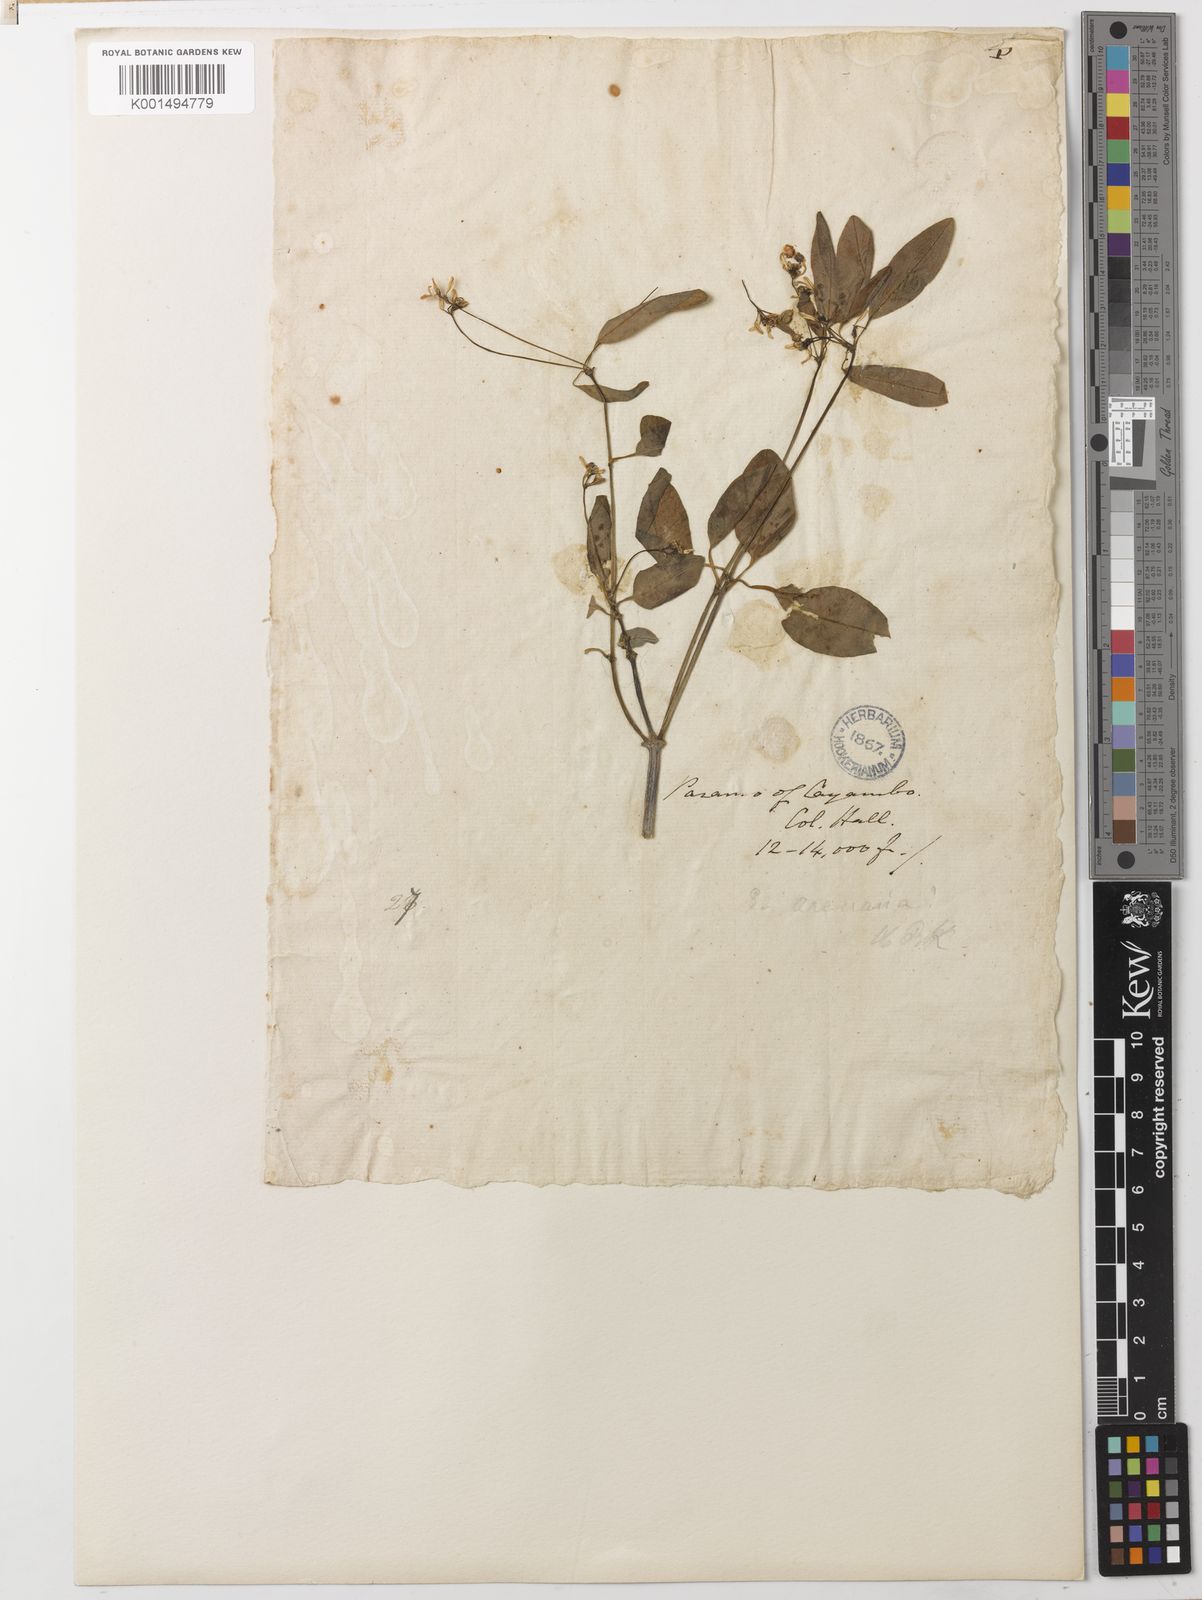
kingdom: Plantae
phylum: Tracheophyta
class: Magnoliopsida
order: Malpighiales
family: Euphorbiaceae
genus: Euphorbia
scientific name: Euphorbia arenaria
